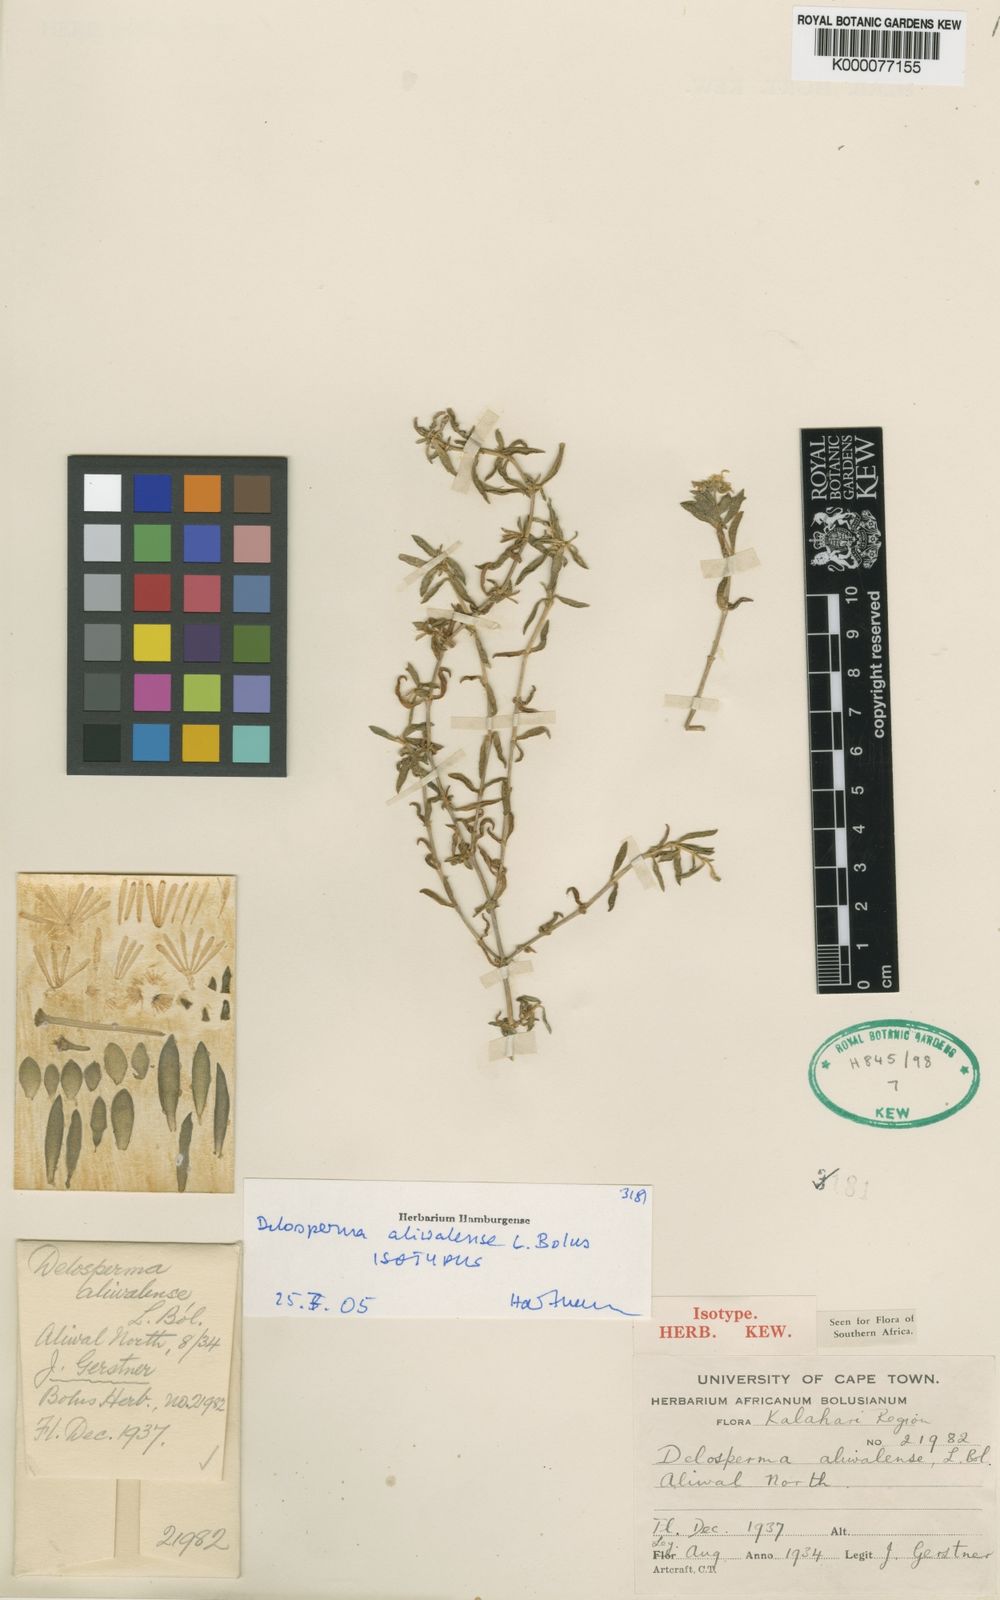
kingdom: Plantae
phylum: Tracheophyta
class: Magnoliopsida
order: Caryophyllales
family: Aizoaceae
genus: Delosperma
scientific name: Delosperma aliwalense
